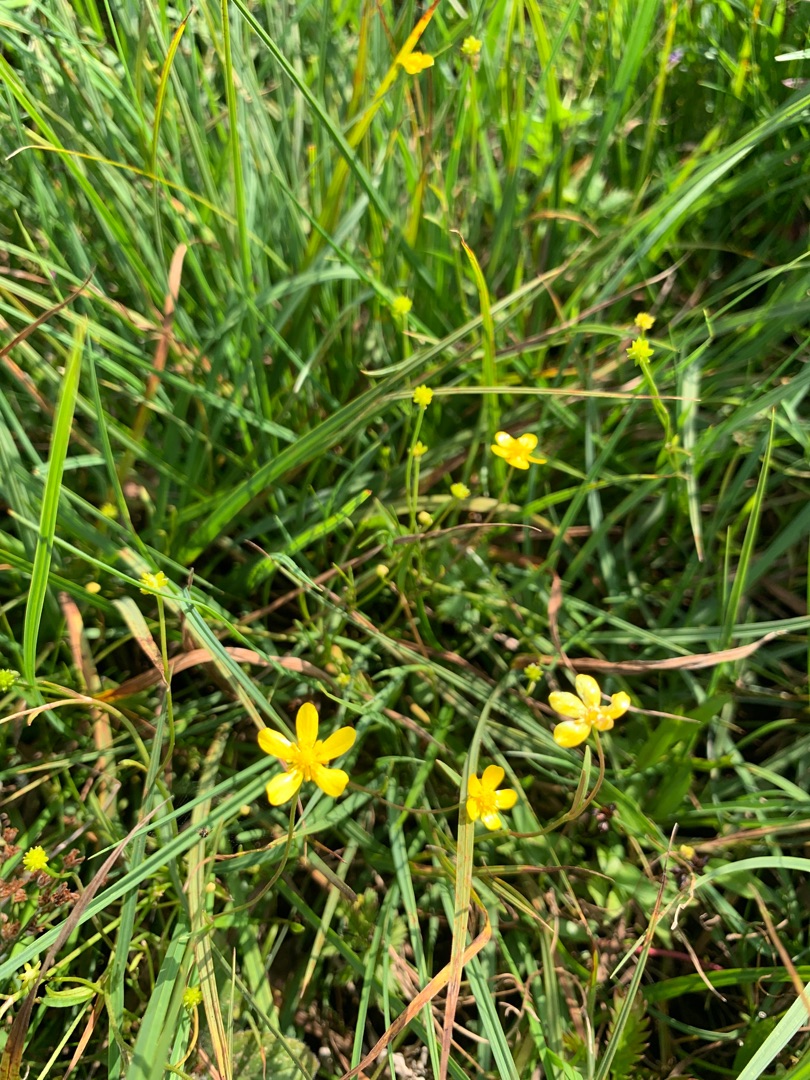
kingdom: Plantae
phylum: Tracheophyta
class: Magnoliopsida
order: Ranunculales
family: Ranunculaceae
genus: Ranunculus
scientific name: Ranunculus
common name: Ranunkelslægten
